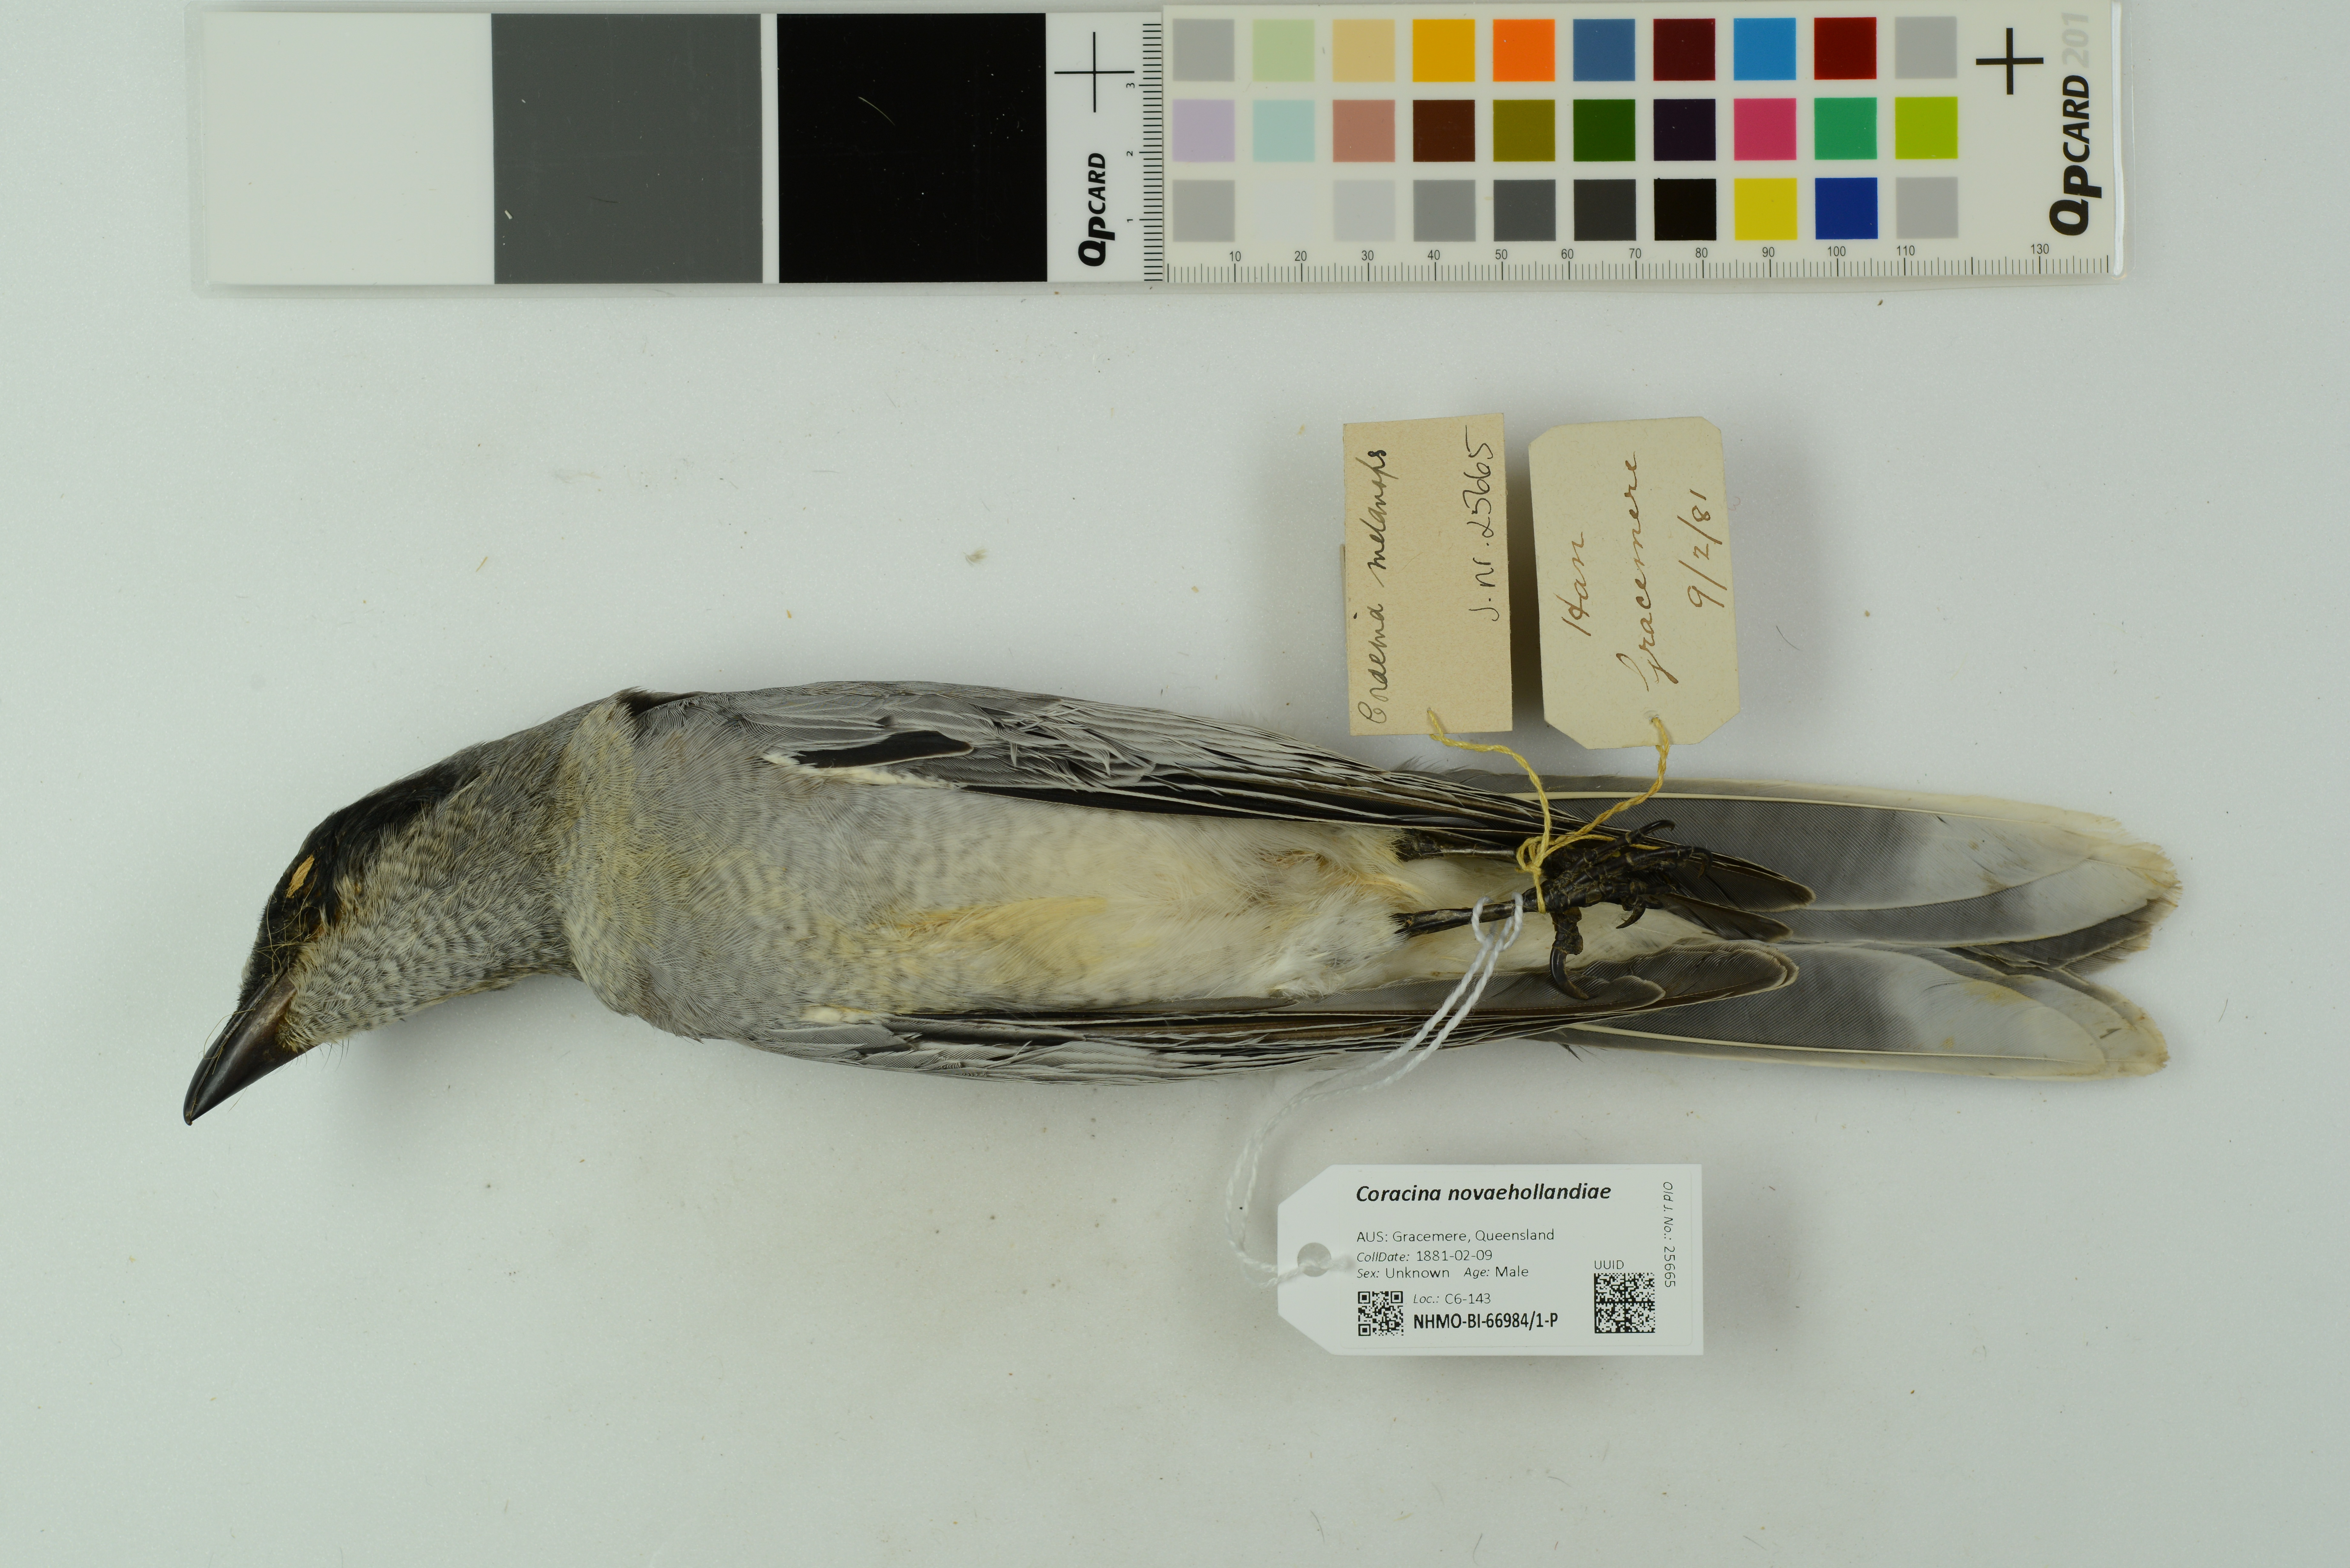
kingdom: Animalia
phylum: Chordata
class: Aves
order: Passeriformes
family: Campephagidae
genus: Coracina
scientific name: Coracina novaehollandiae
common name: Black-faced cuckooshrike
